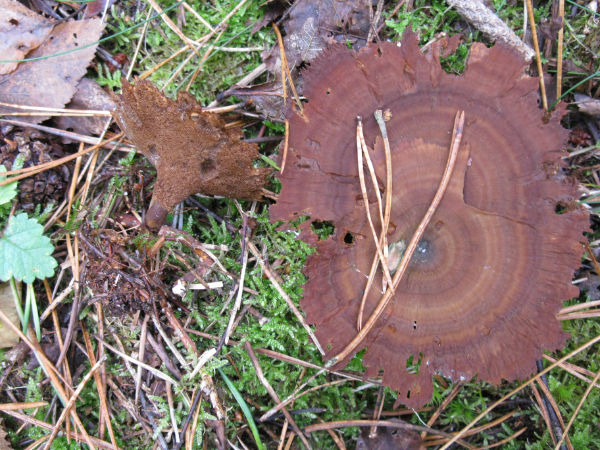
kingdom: Fungi
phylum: Basidiomycota
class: Agaricomycetes
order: Hymenochaetales
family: Hymenochaetaceae
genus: Coltricia
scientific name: Coltricia perennis
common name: almindelig sandporesvamp
